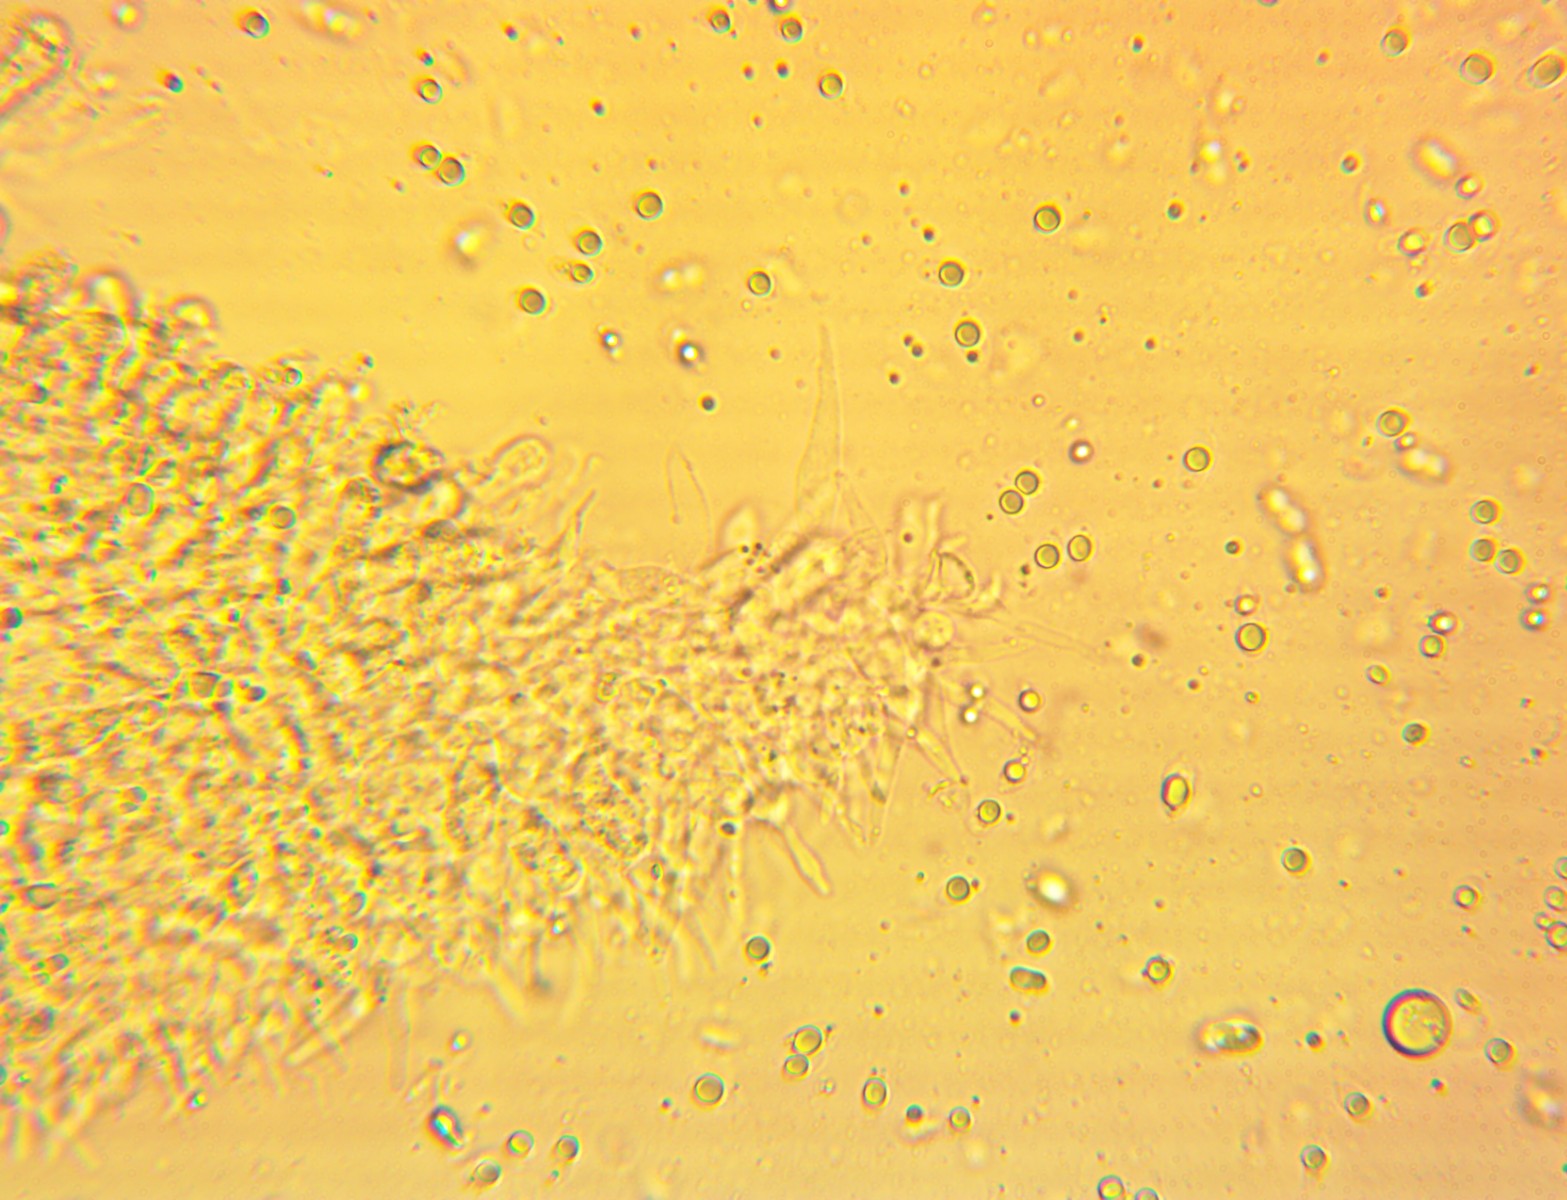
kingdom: Fungi
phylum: Basidiomycota
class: Agaricomycetes
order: Agaricales
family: Mycenaceae
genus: Mycena
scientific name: Mycena abramsii
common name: sommer-huesvamp
